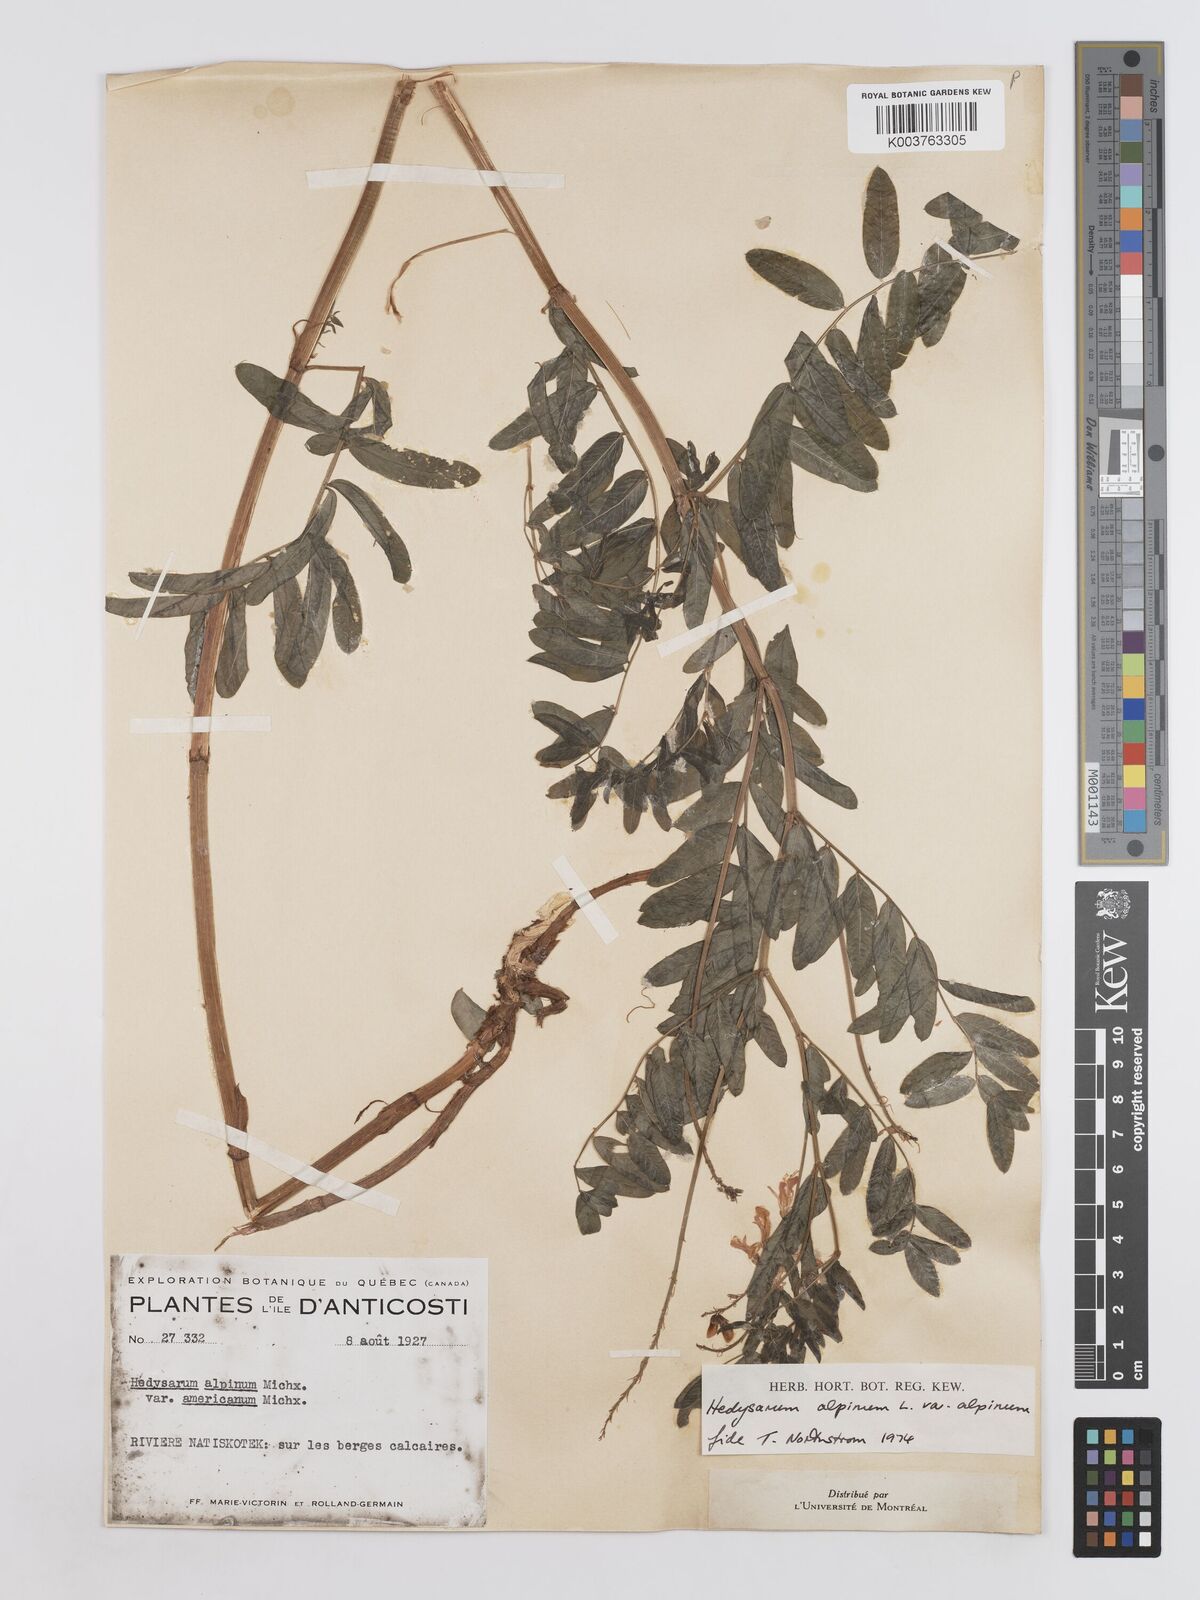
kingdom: Plantae
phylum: Tracheophyta
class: Magnoliopsida
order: Fabales
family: Fabaceae
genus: Hedysarum
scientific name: Hedysarum alpinum
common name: Alpine sweet-vetch
